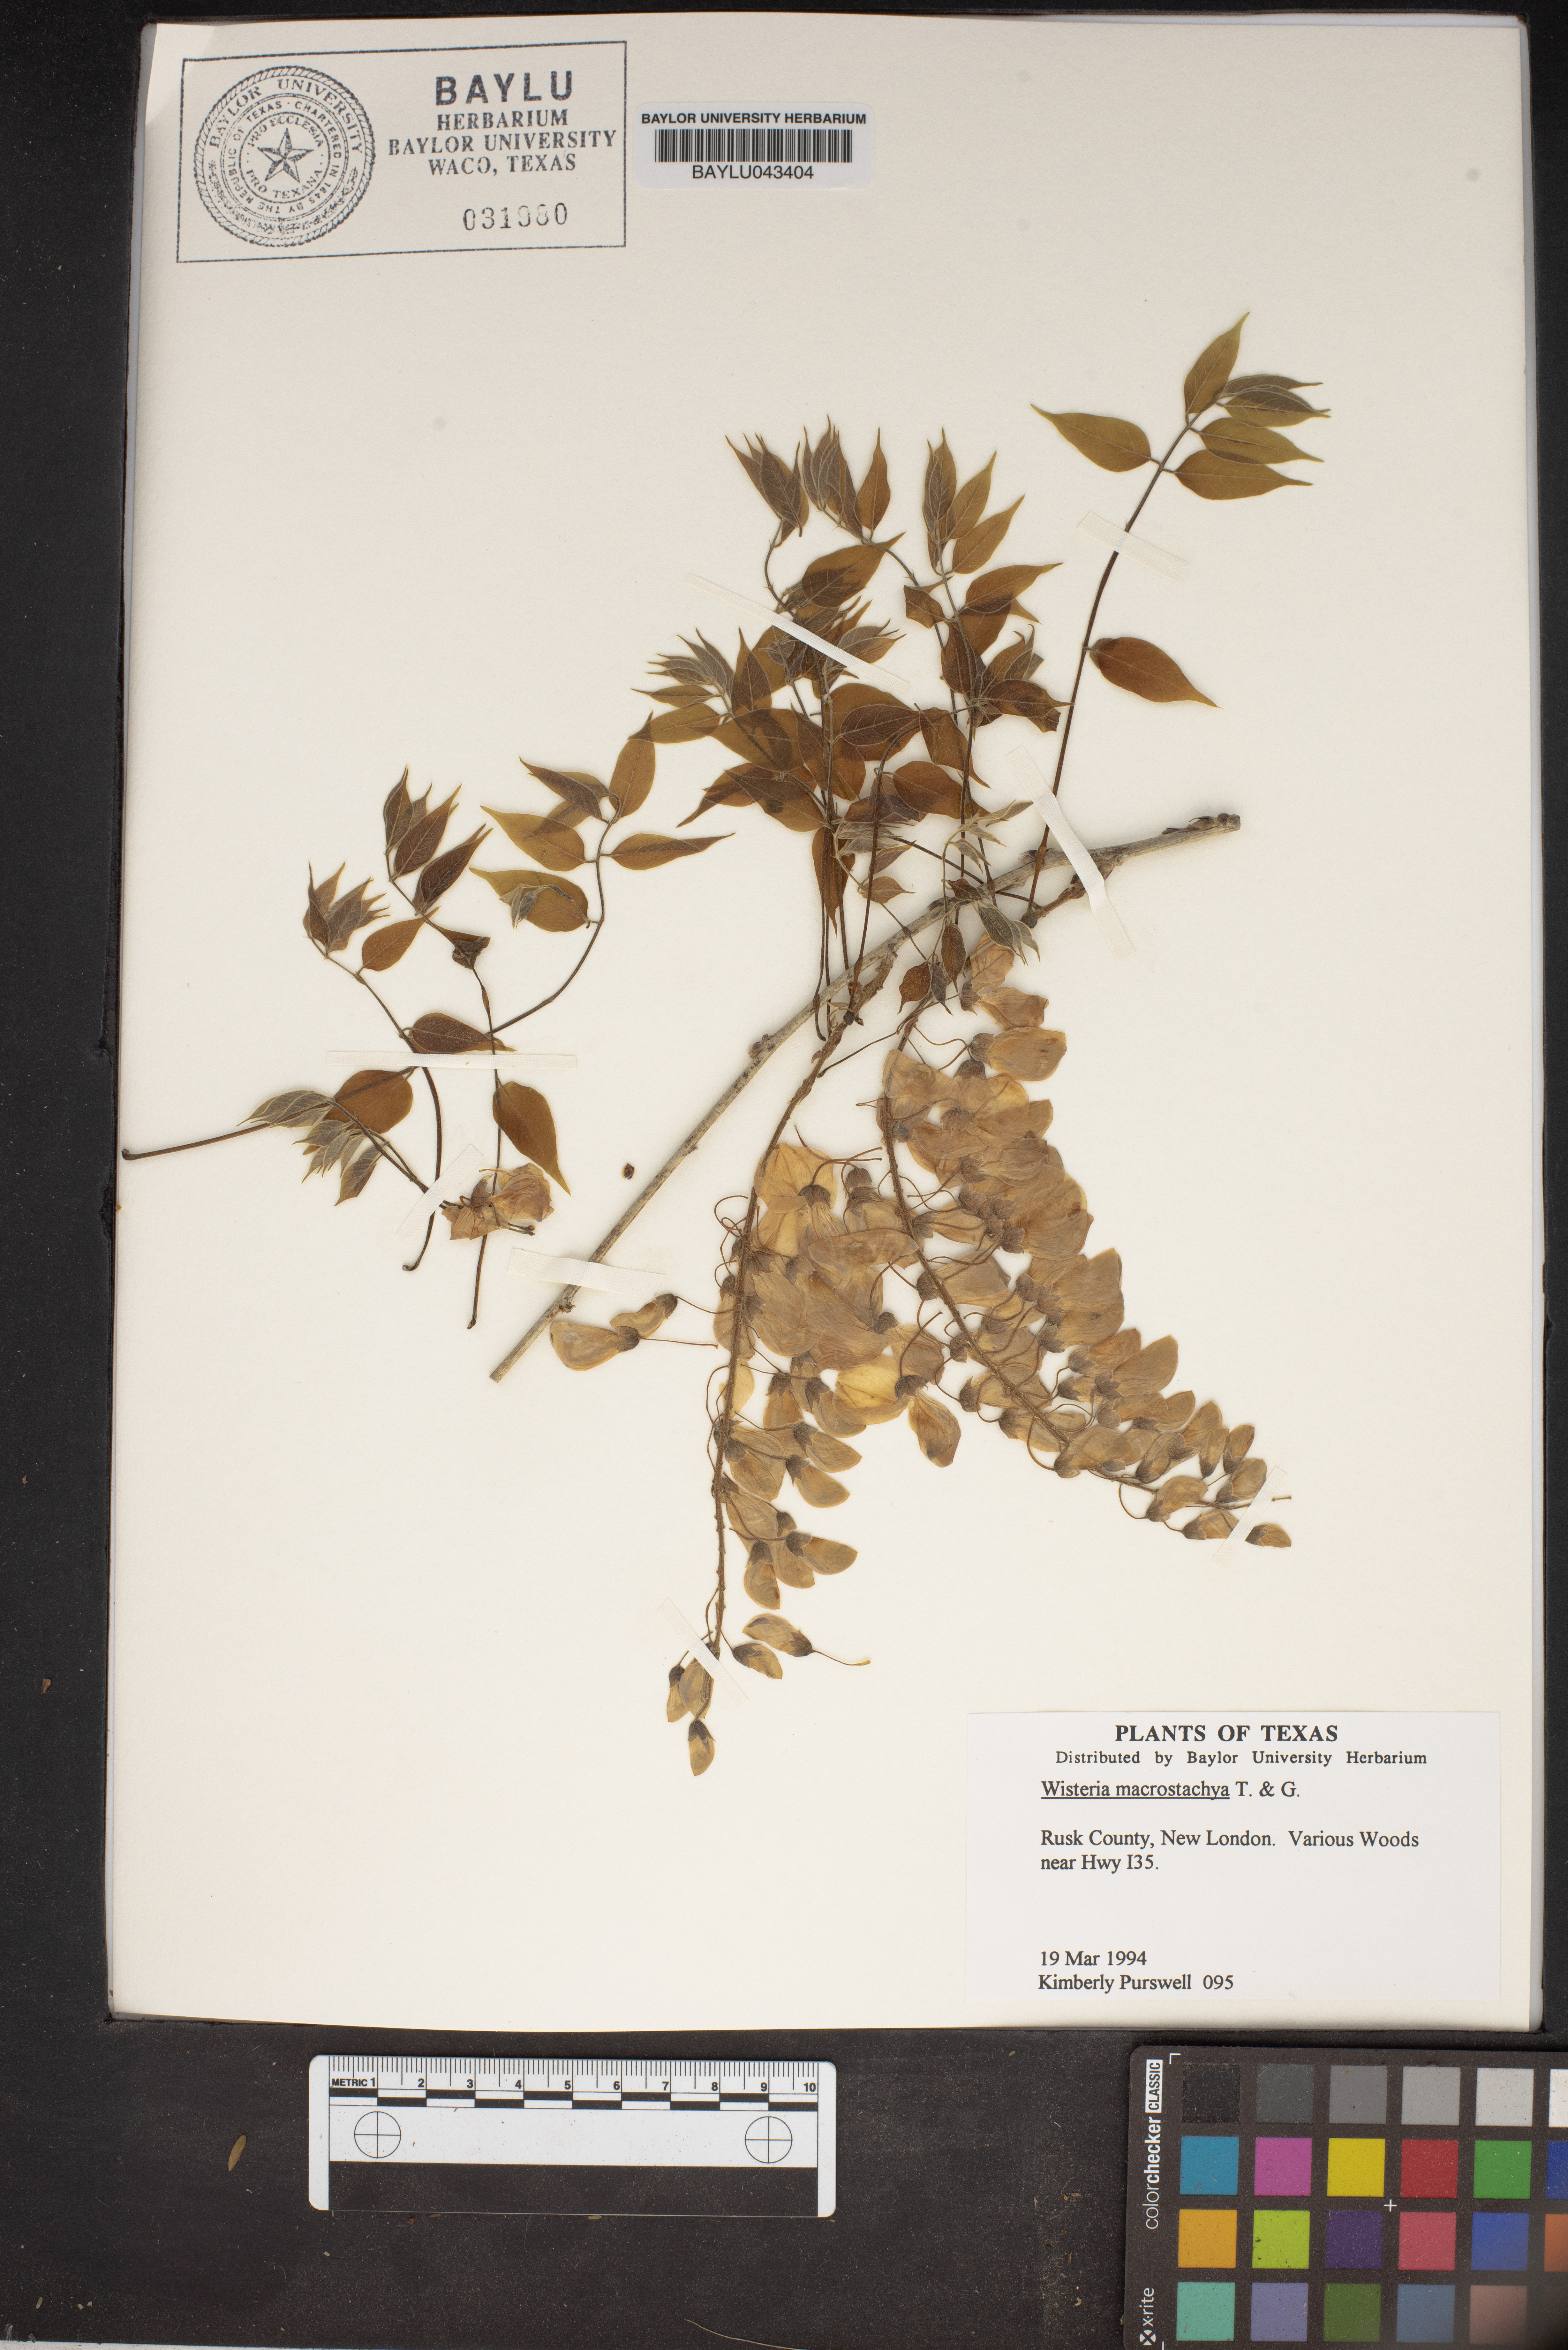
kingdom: Plantae
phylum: Tracheophyta
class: Magnoliopsida
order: Fabales
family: Fabaceae
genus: Wisteria
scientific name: Wisteria frutescens
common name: American wisteria
